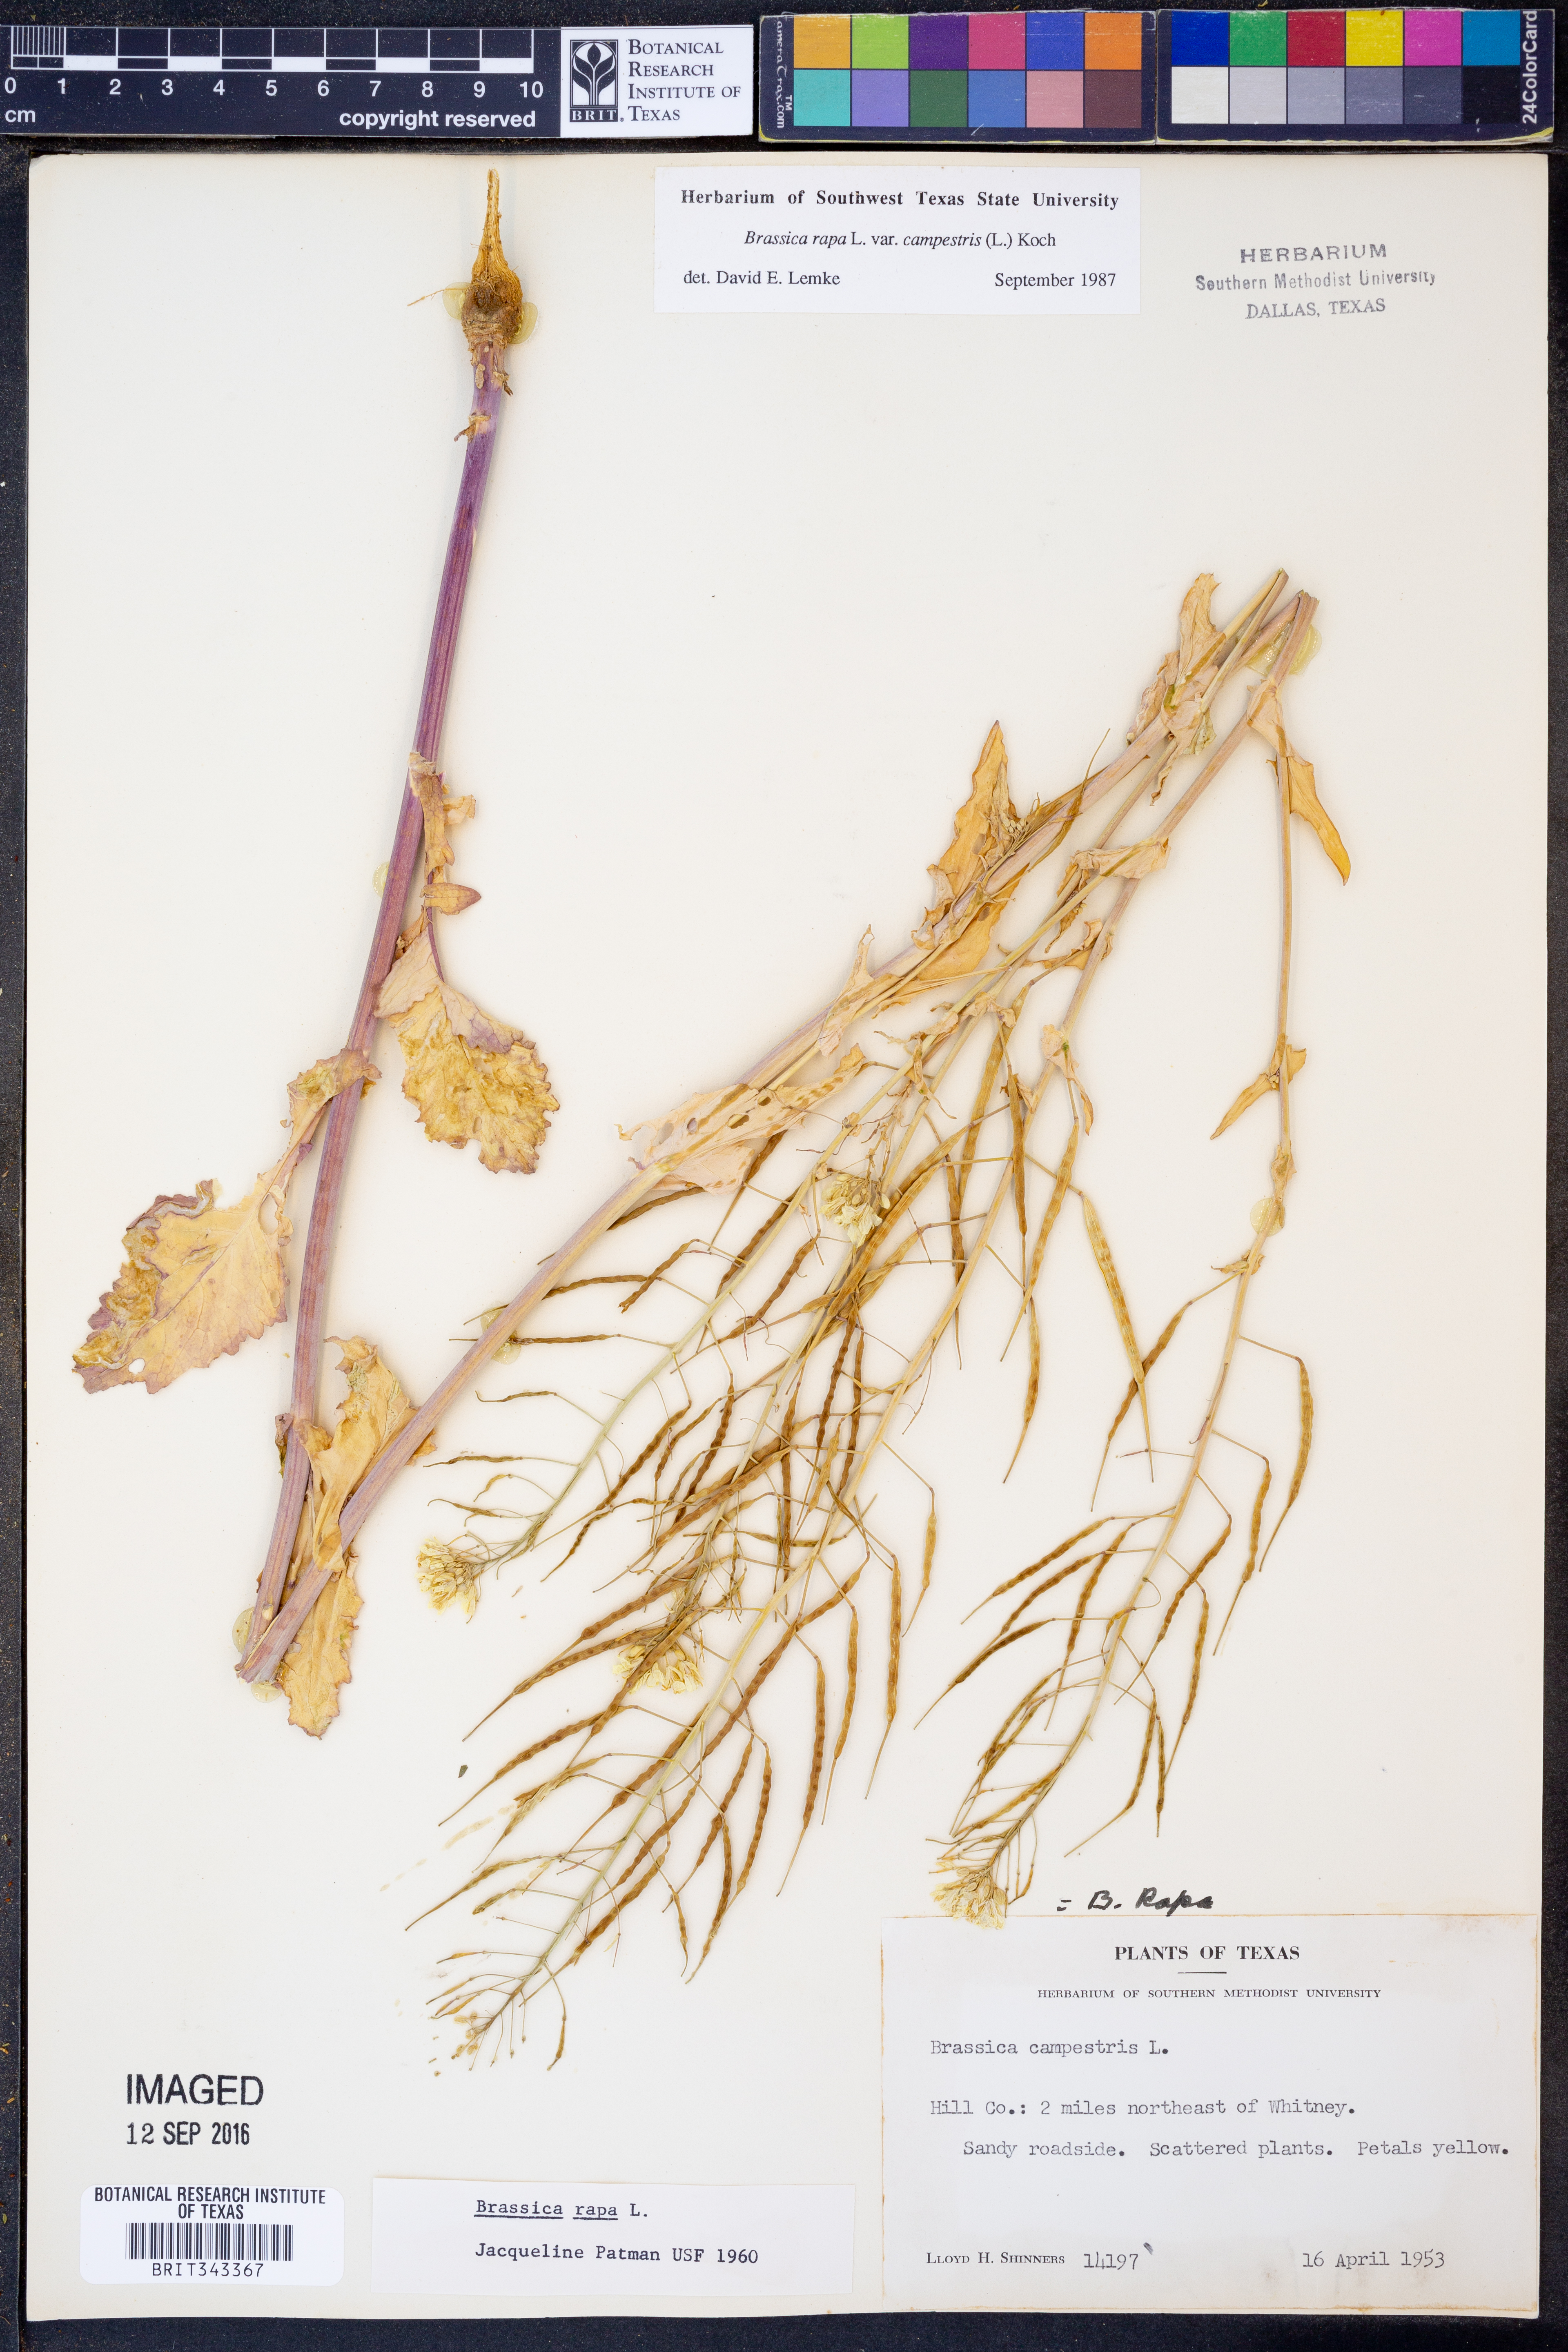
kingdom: Plantae
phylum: Tracheophyta
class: Magnoliopsida
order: Brassicales
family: Brassicaceae
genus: Brassica
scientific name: Brassica rapa
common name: Field mustard
